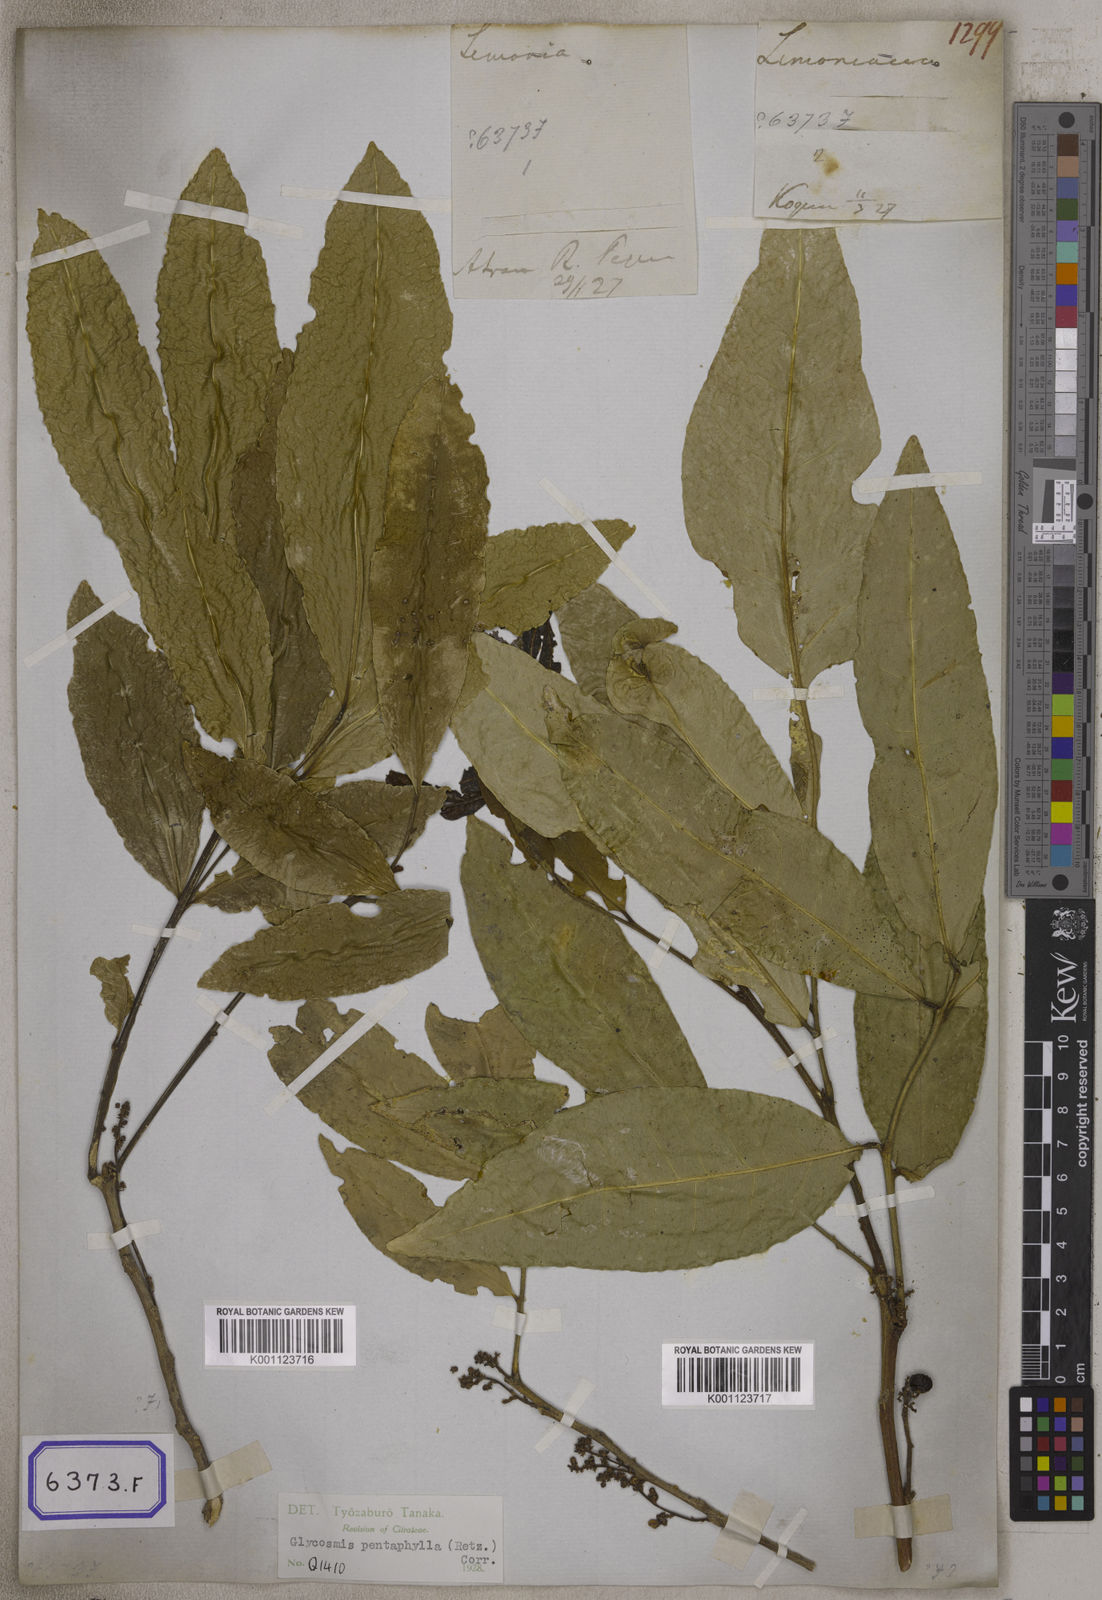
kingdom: Plantae
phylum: Tracheophyta
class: Magnoliopsida
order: Sapindales
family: Rutaceae
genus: Glycosmis
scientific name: Glycosmis pentaphylla
